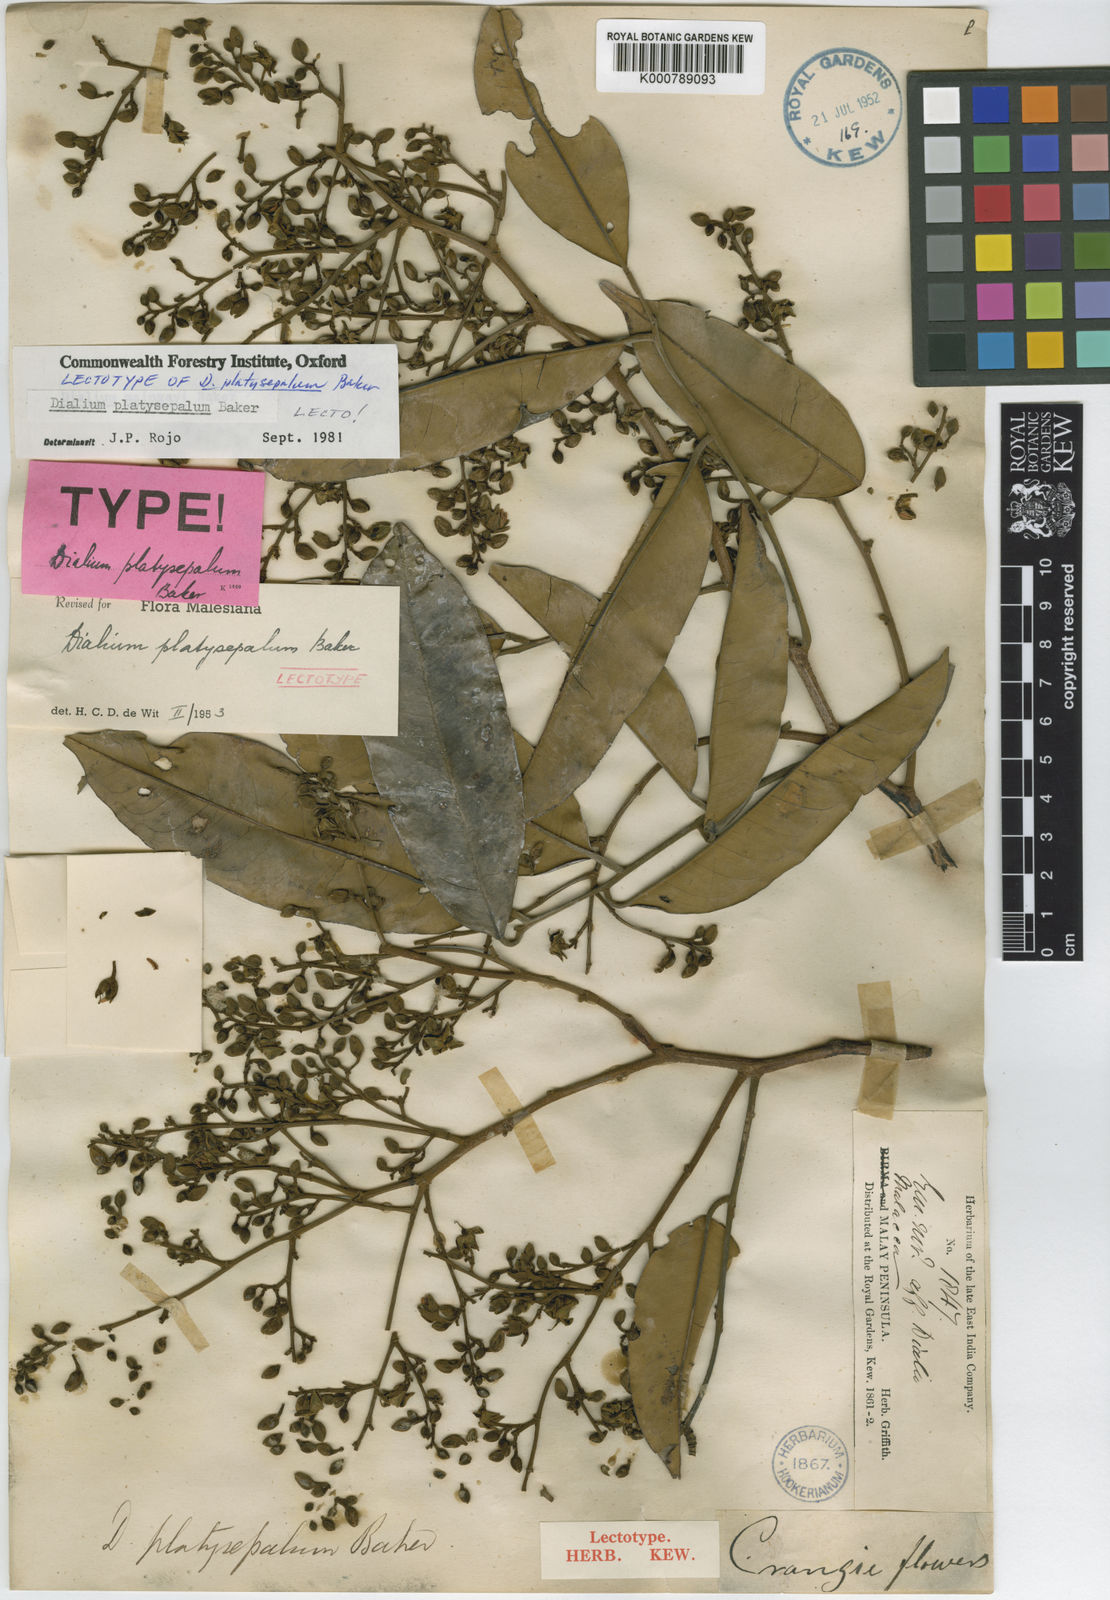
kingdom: Plantae
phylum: Tracheophyta
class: Magnoliopsida
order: Fabales
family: Fabaceae
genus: Dialium
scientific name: Dialium platysepalum
